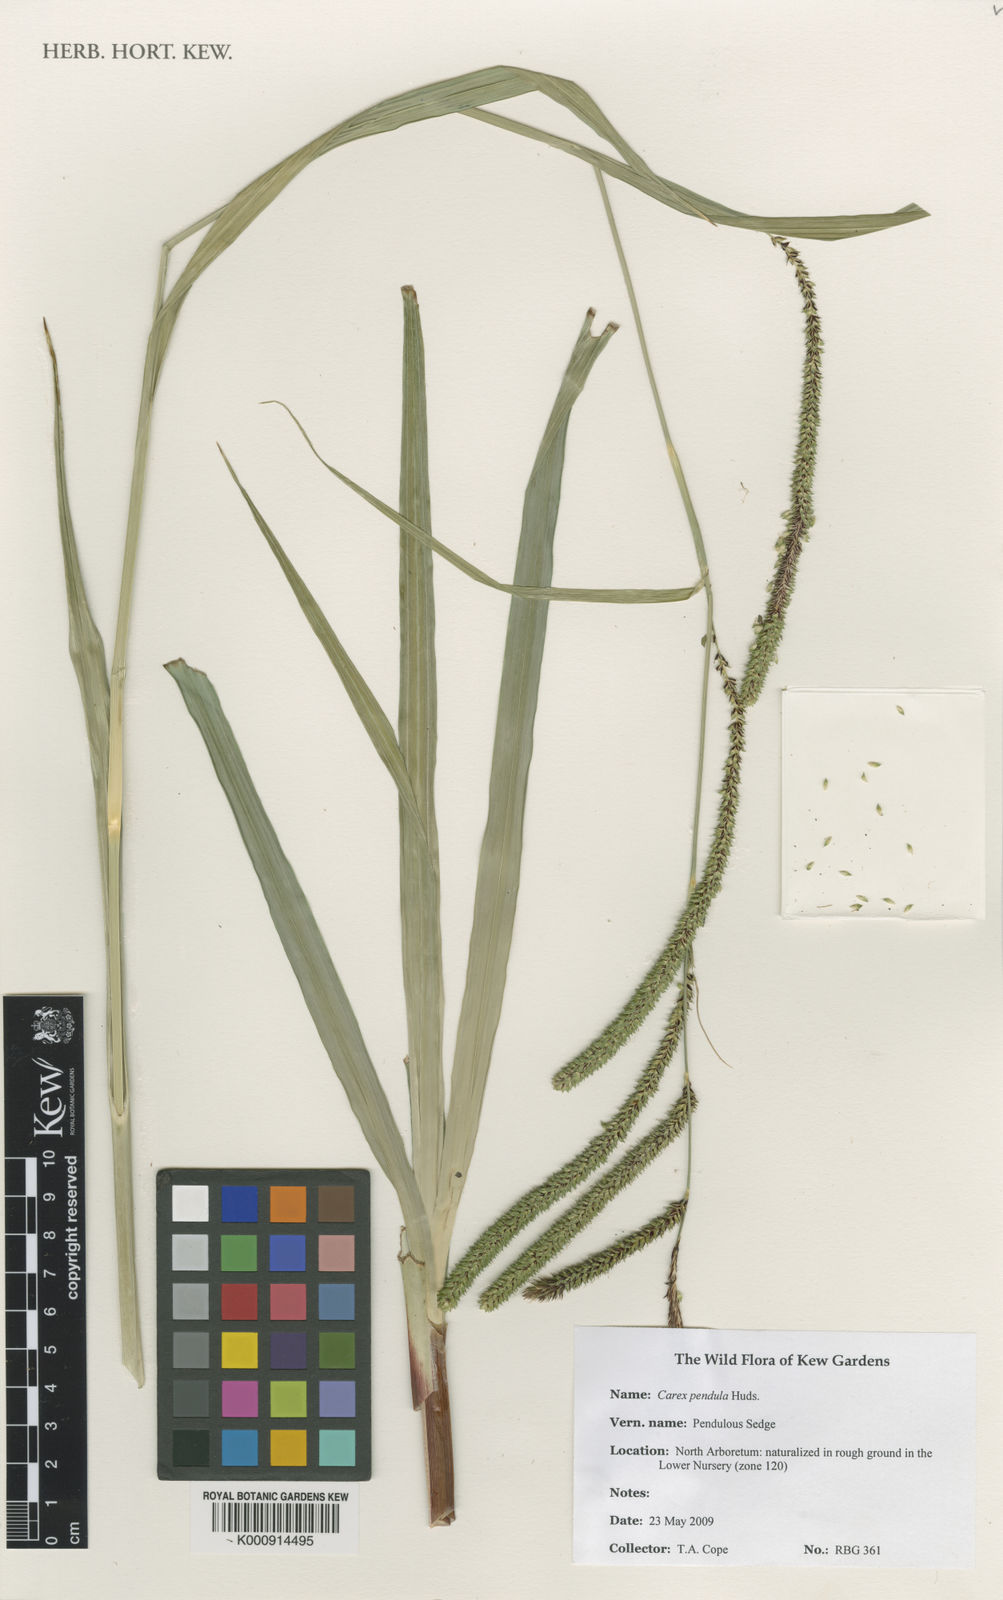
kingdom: Plantae
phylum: Tracheophyta
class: Liliopsida
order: Poales
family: Cyperaceae
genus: Carex
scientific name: Carex pendula
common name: Pendulous sedge
